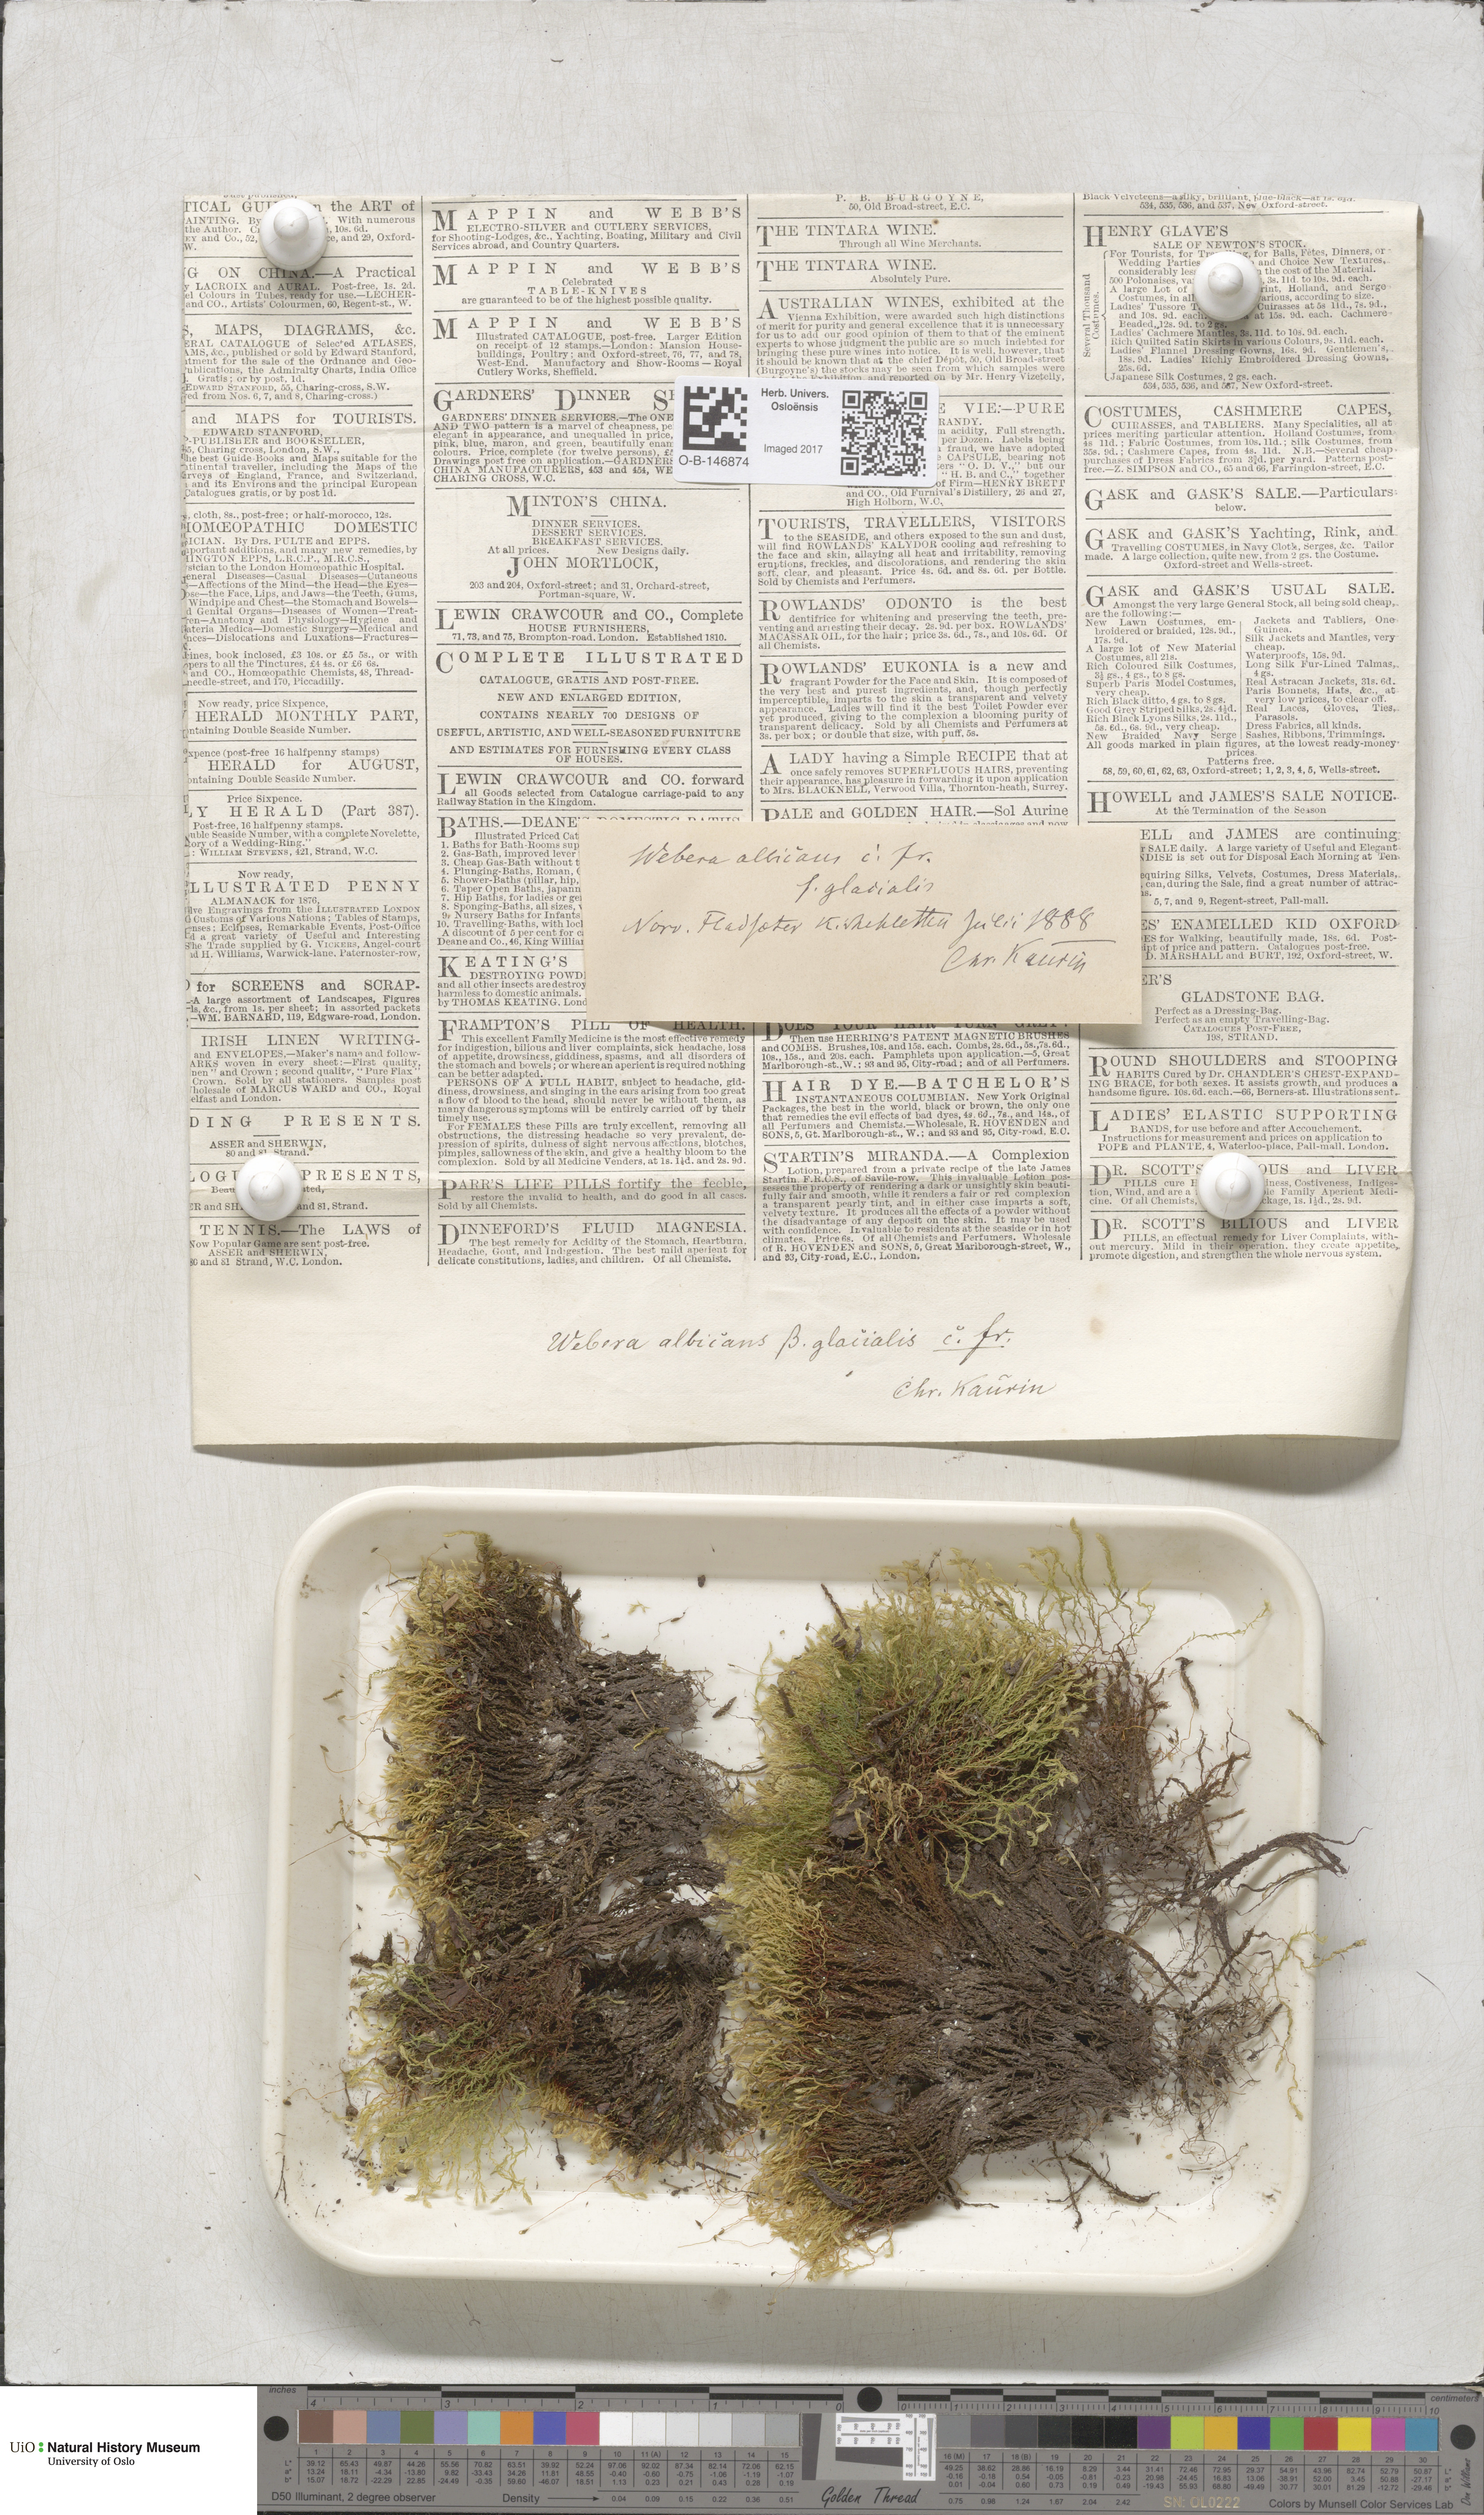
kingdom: Plantae
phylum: Bryophyta
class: Bryopsida
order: Bryales
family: Mniaceae
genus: Pohlia
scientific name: Pohlia wahlenbergii
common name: Wahlenberg's nodding moss
